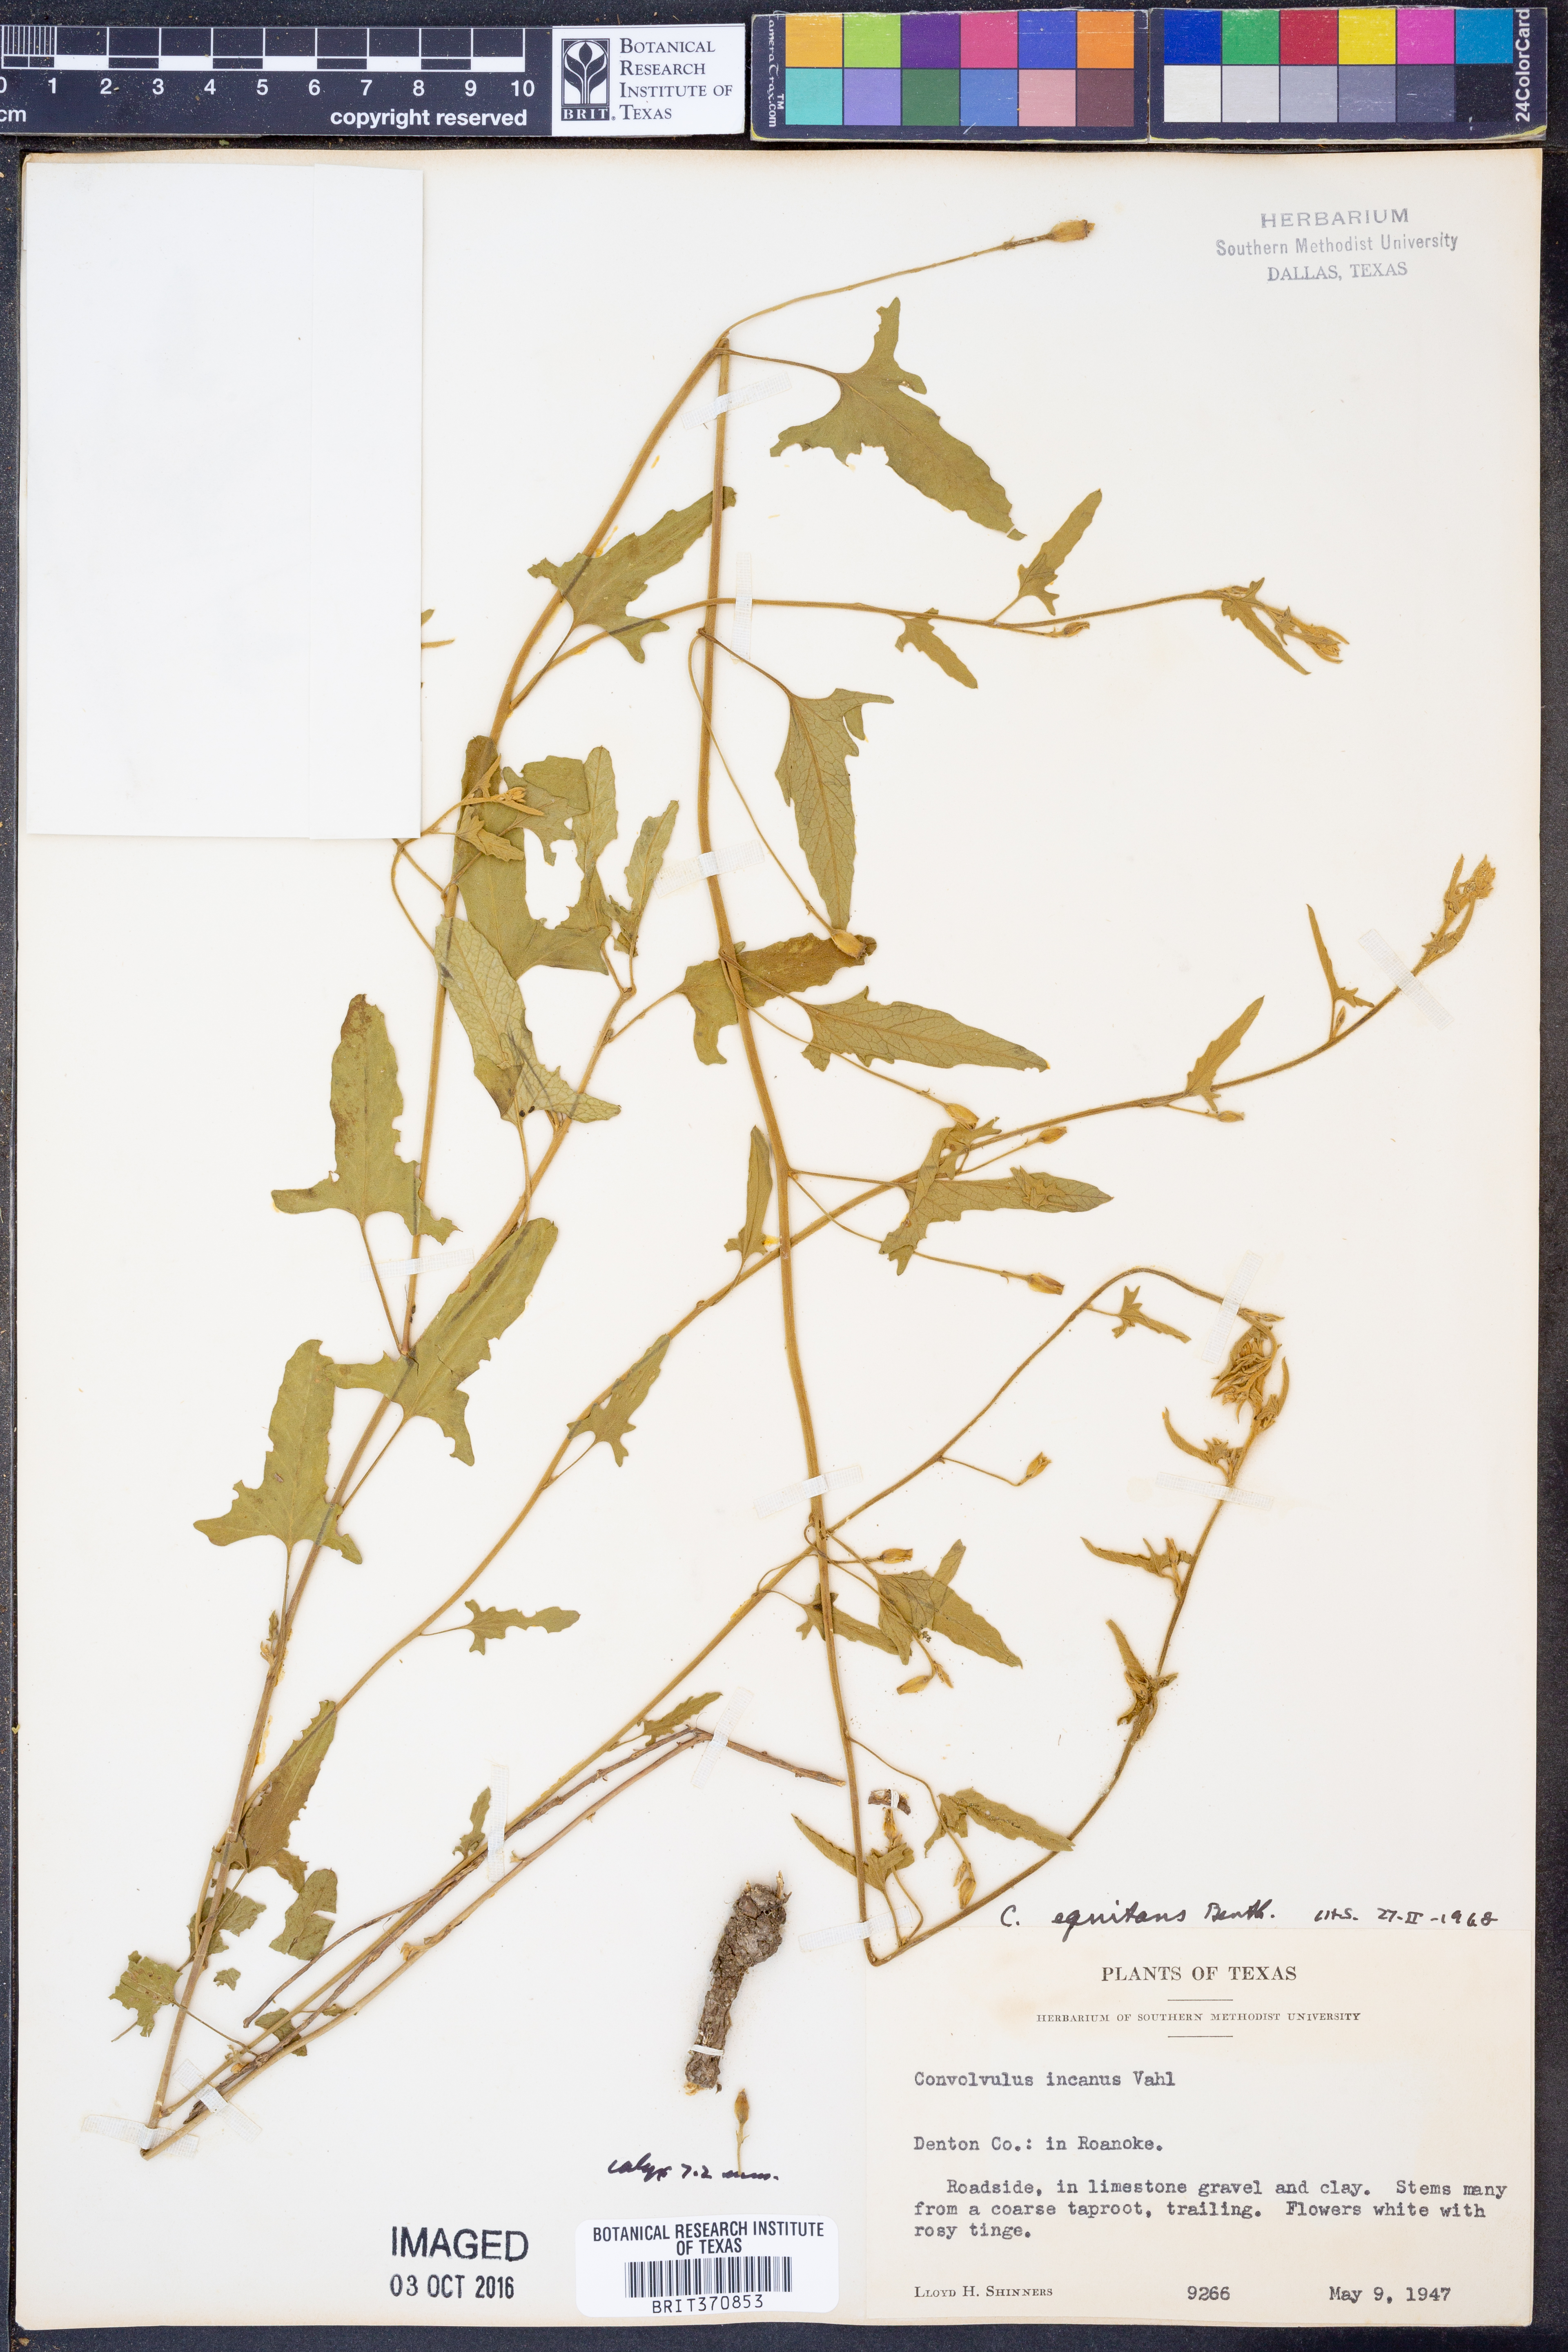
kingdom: Plantae
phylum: Tracheophyta
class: Magnoliopsida
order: Solanales
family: Convolvulaceae
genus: Convolvulus
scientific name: Convolvulus equitans
